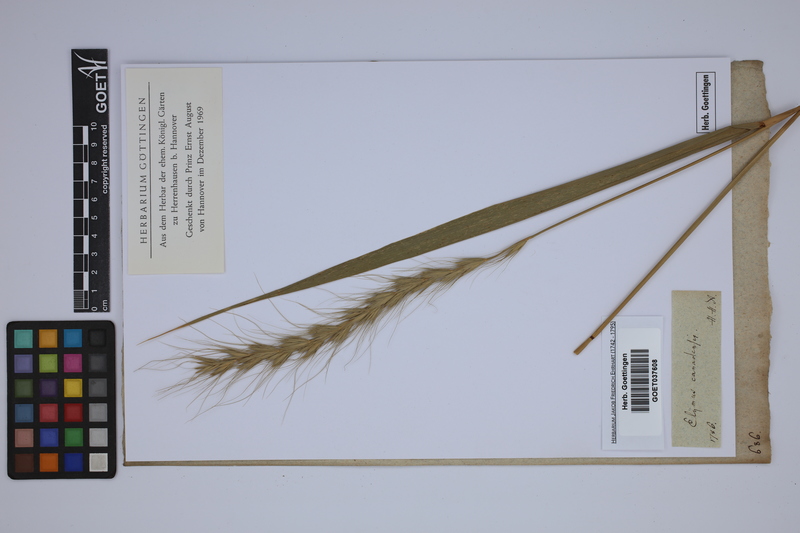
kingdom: Plantae
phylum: Tracheophyta
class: Liliopsida
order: Poales
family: Poaceae
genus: Elymus
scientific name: Elymus canadensis
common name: Canada wild rye
